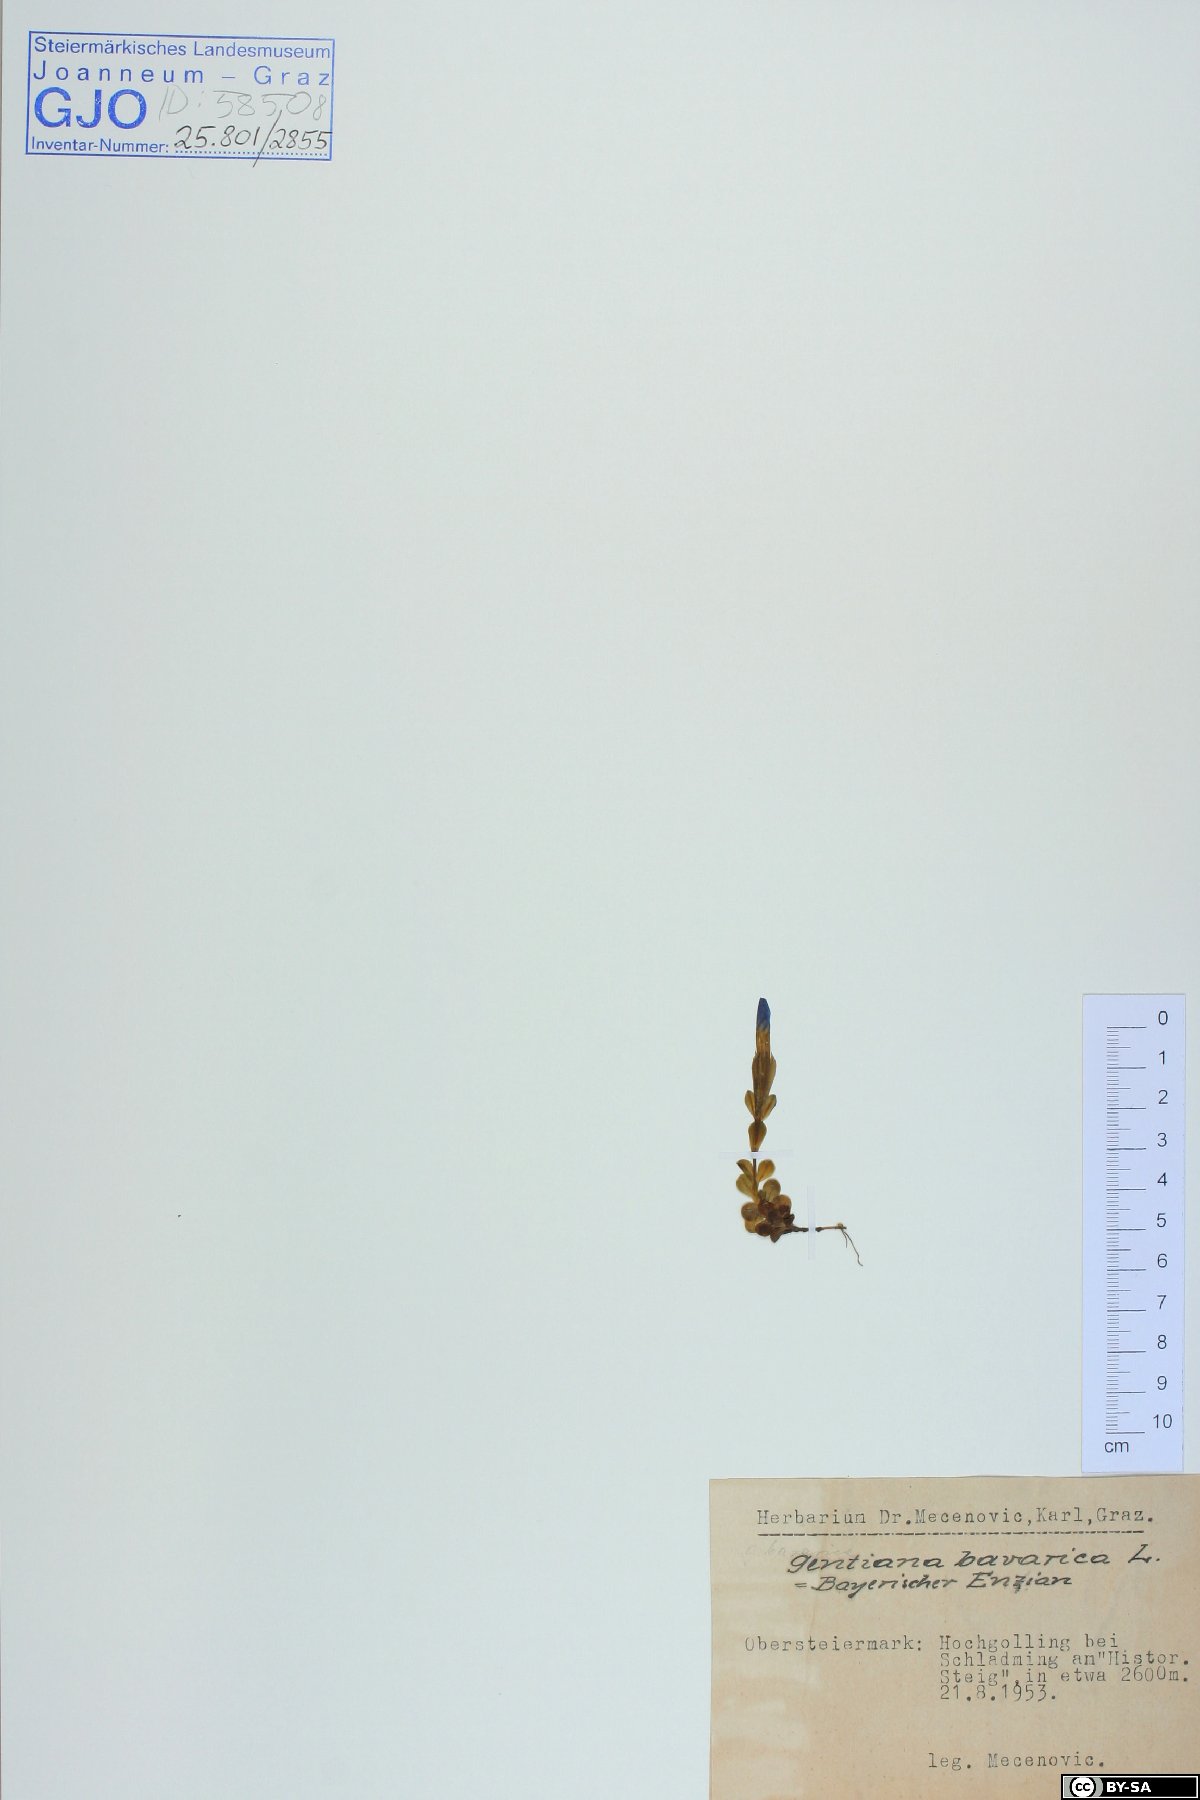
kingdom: Plantae
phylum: Tracheophyta
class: Magnoliopsida
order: Gentianales
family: Gentianaceae
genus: Gentiana
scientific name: Gentiana bavarica
